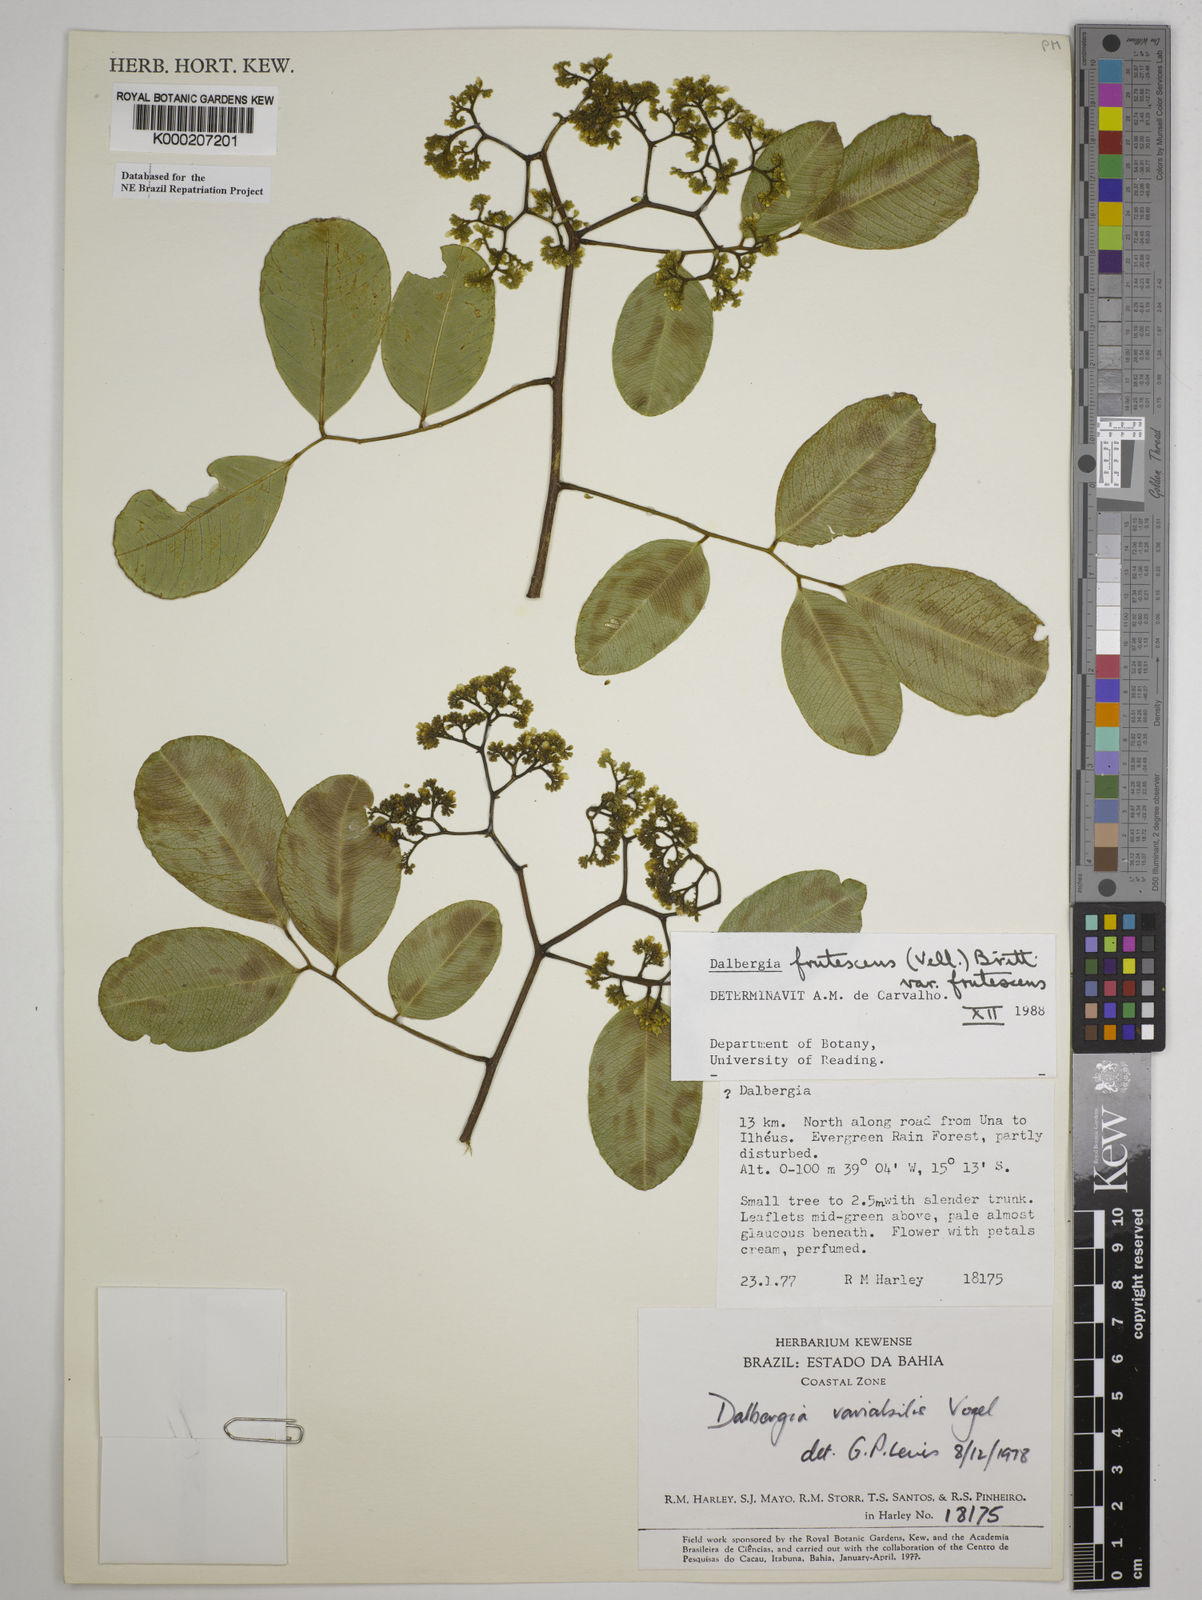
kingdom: Plantae
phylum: Tracheophyta
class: Magnoliopsida
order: Fabales
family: Fabaceae
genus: Dalbergia
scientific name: Dalbergia frutescens
